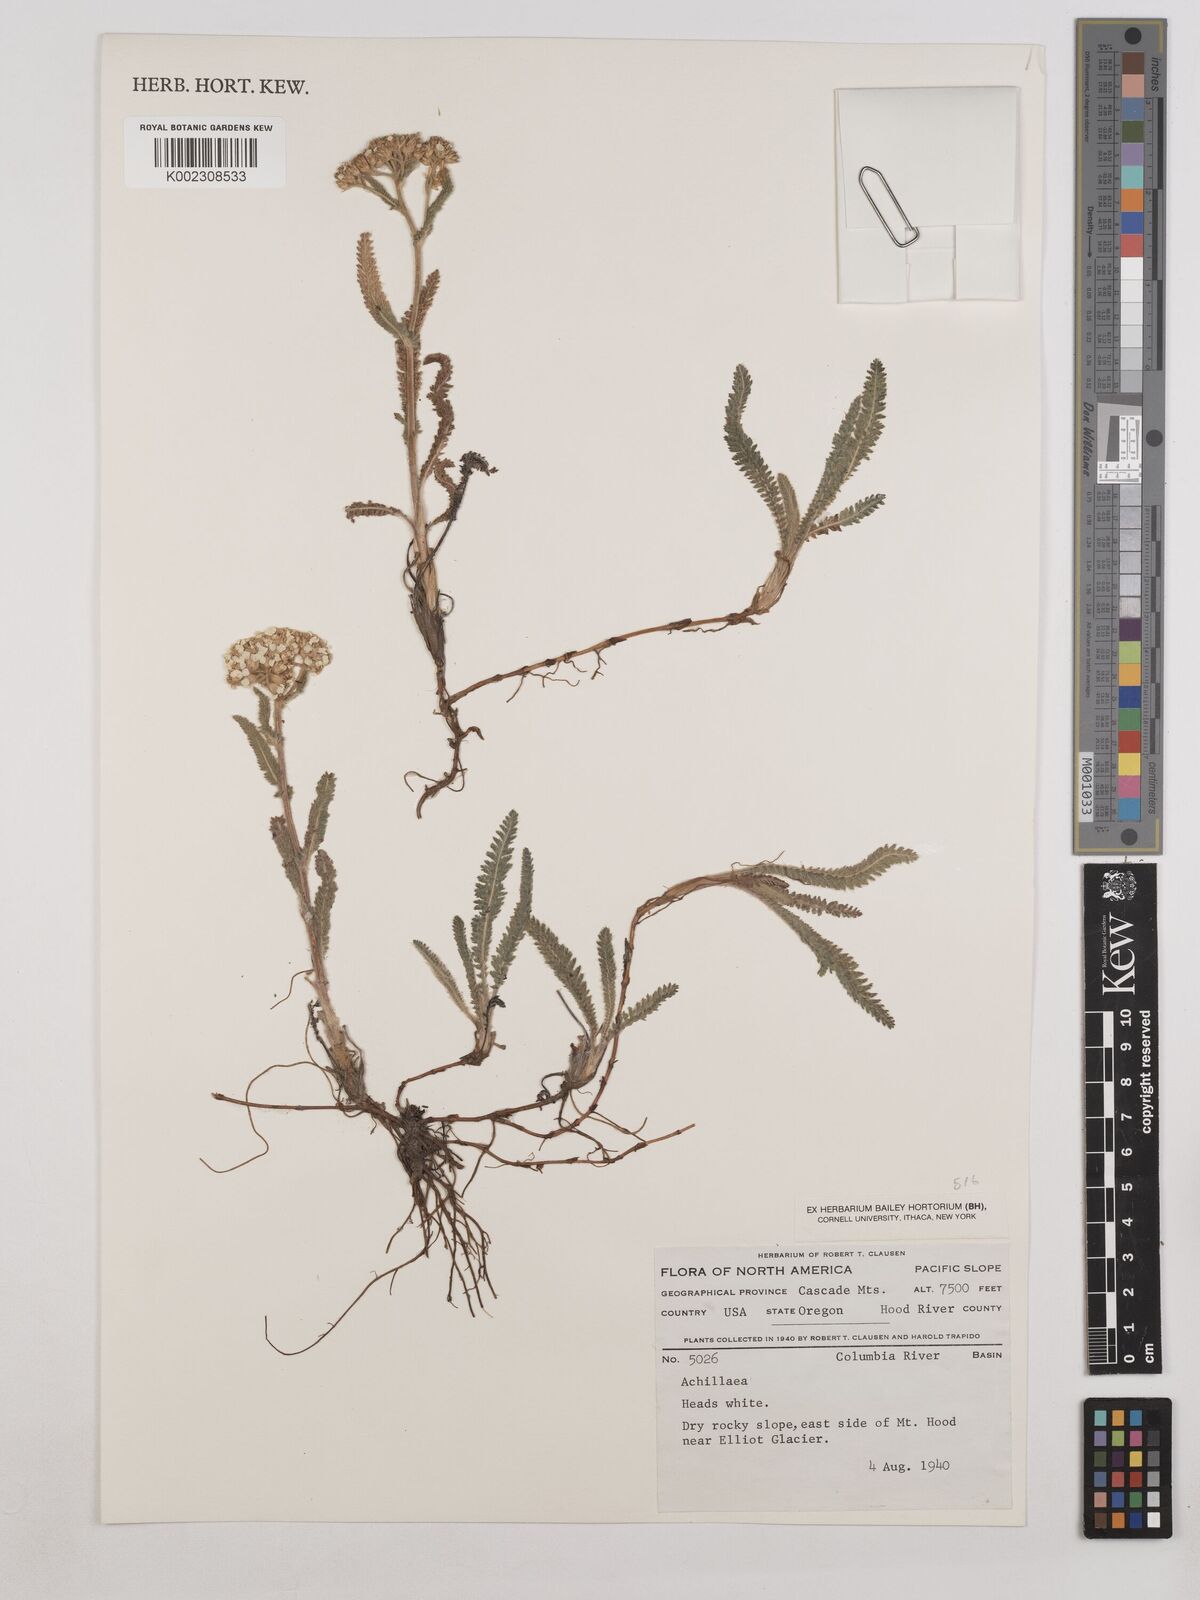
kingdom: Plantae
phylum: Tracheophyta
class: Magnoliopsida
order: Asterales
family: Asteraceae
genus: Achillea
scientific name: Achillea
